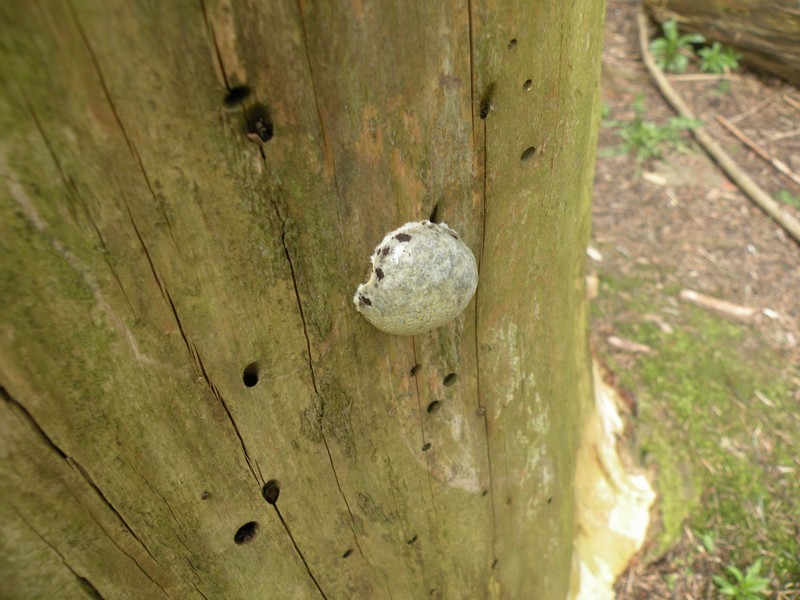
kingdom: Protozoa
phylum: Mycetozoa
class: Myxomycetes
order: Cribrariales
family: Tubiferaceae
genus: Reticularia
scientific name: Reticularia lycoperdon
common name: skinnende støvpude
